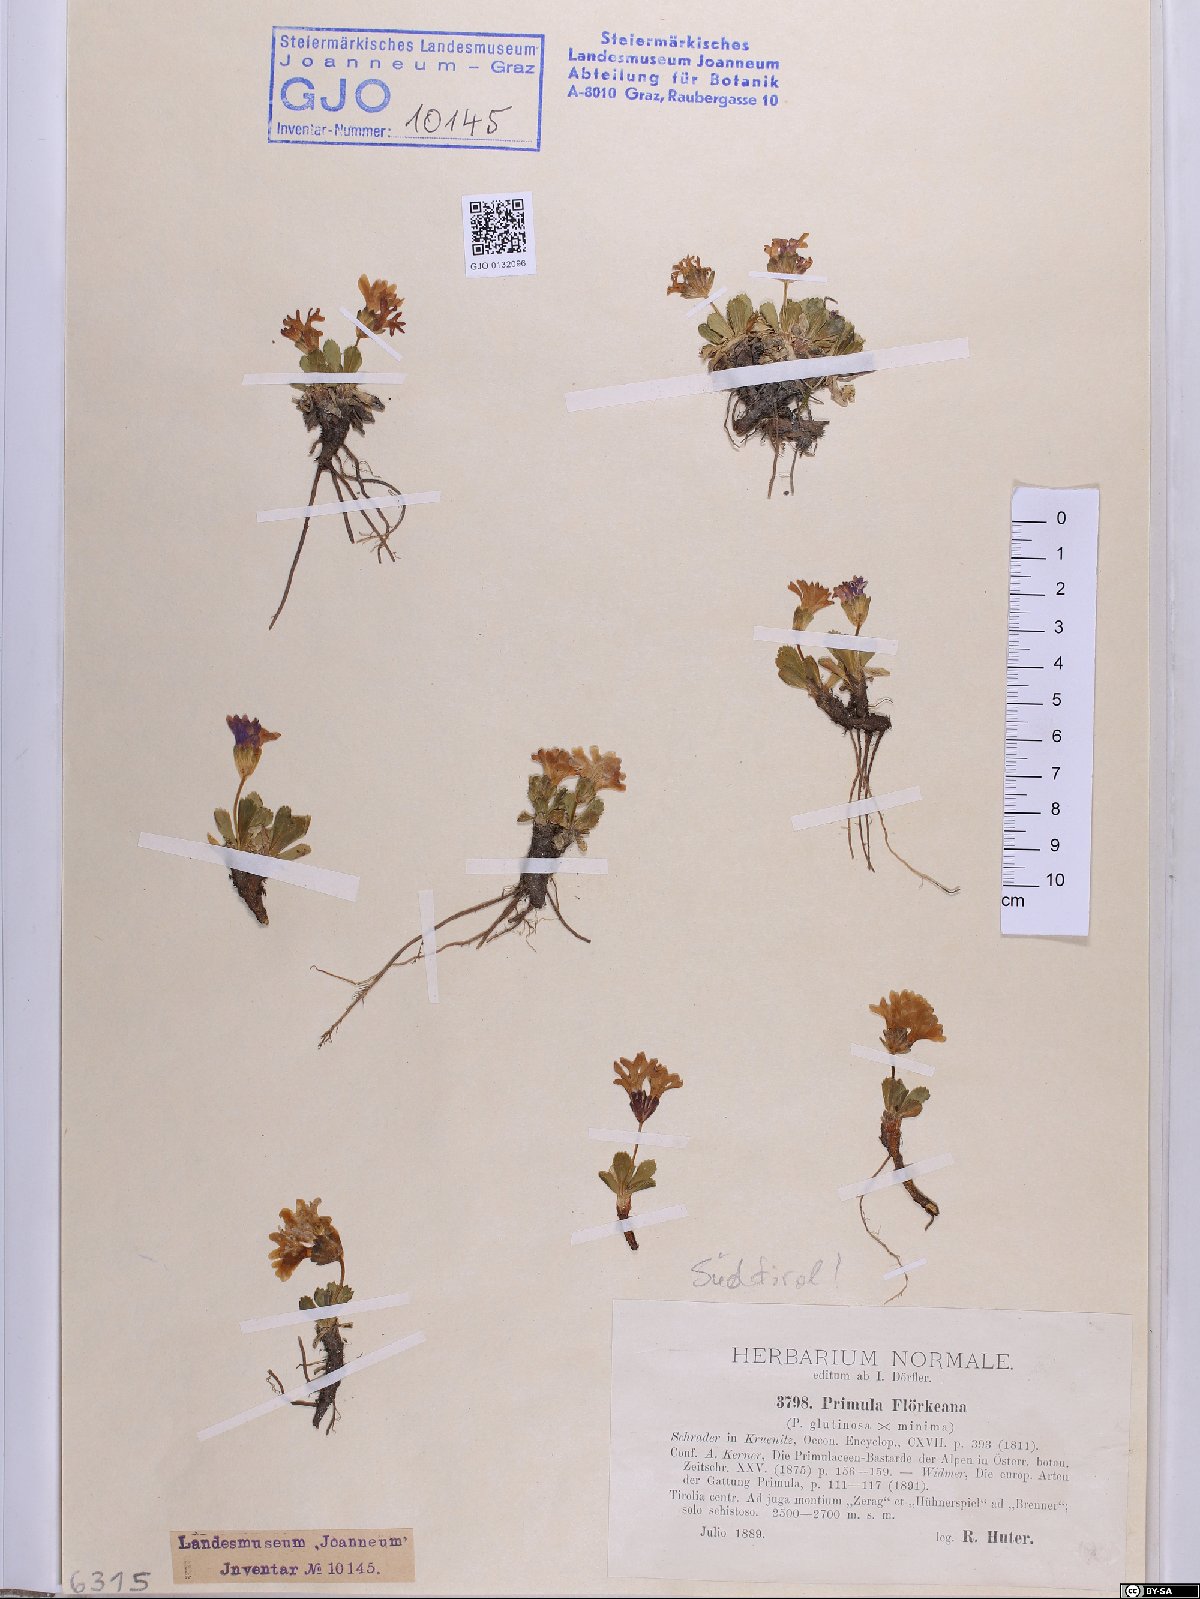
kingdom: Plantae
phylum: Tracheophyta
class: Magnoliopsida
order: Ericales
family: Primulaceae
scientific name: Primulaceae
